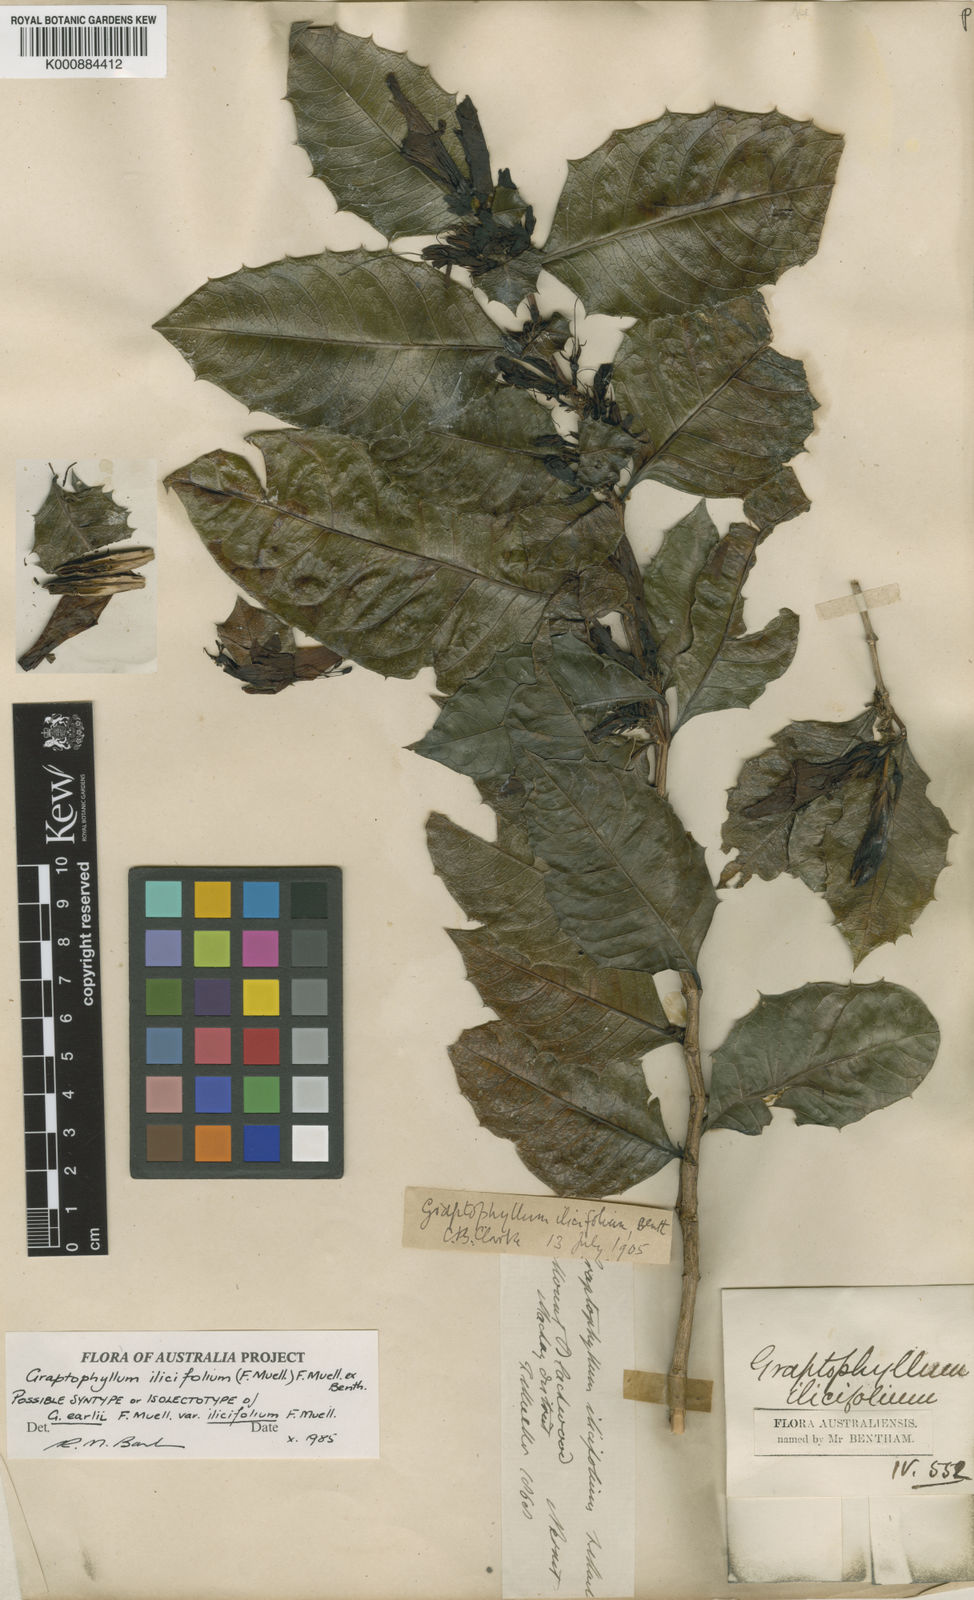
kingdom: Plantae
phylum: Tracheophyta
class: Magnoliopsida
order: Lamiales
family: Acanthaceae
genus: Graptophyllum
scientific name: Graptophyllum ilicifolium
